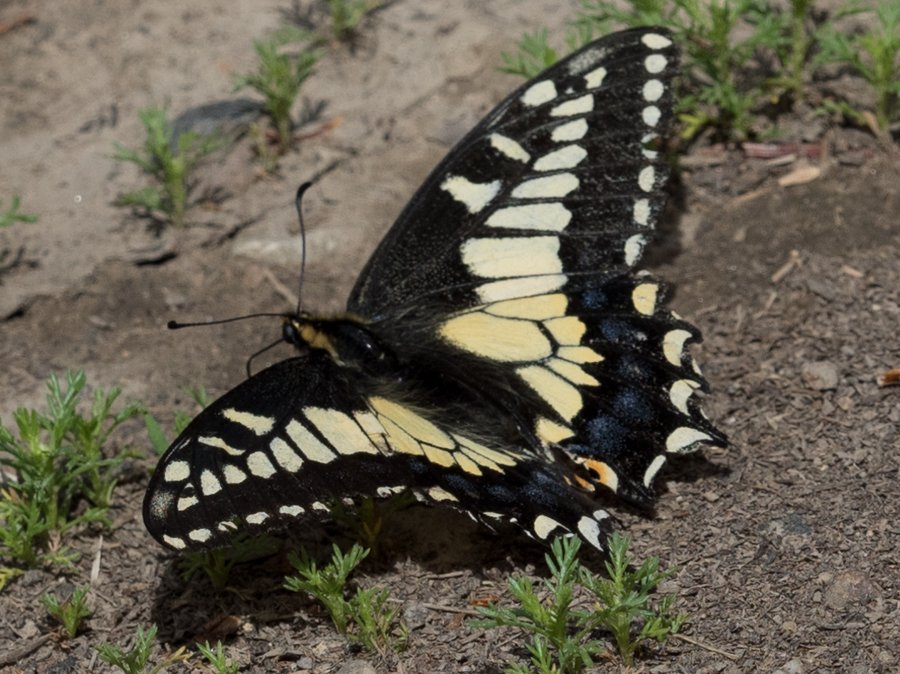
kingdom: Animalia
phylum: Arthropoda
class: Insecta
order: Lepidoptera
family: Papilionidae
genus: Papilio
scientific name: Papilio zelicaon
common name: Anise Swallowtail
